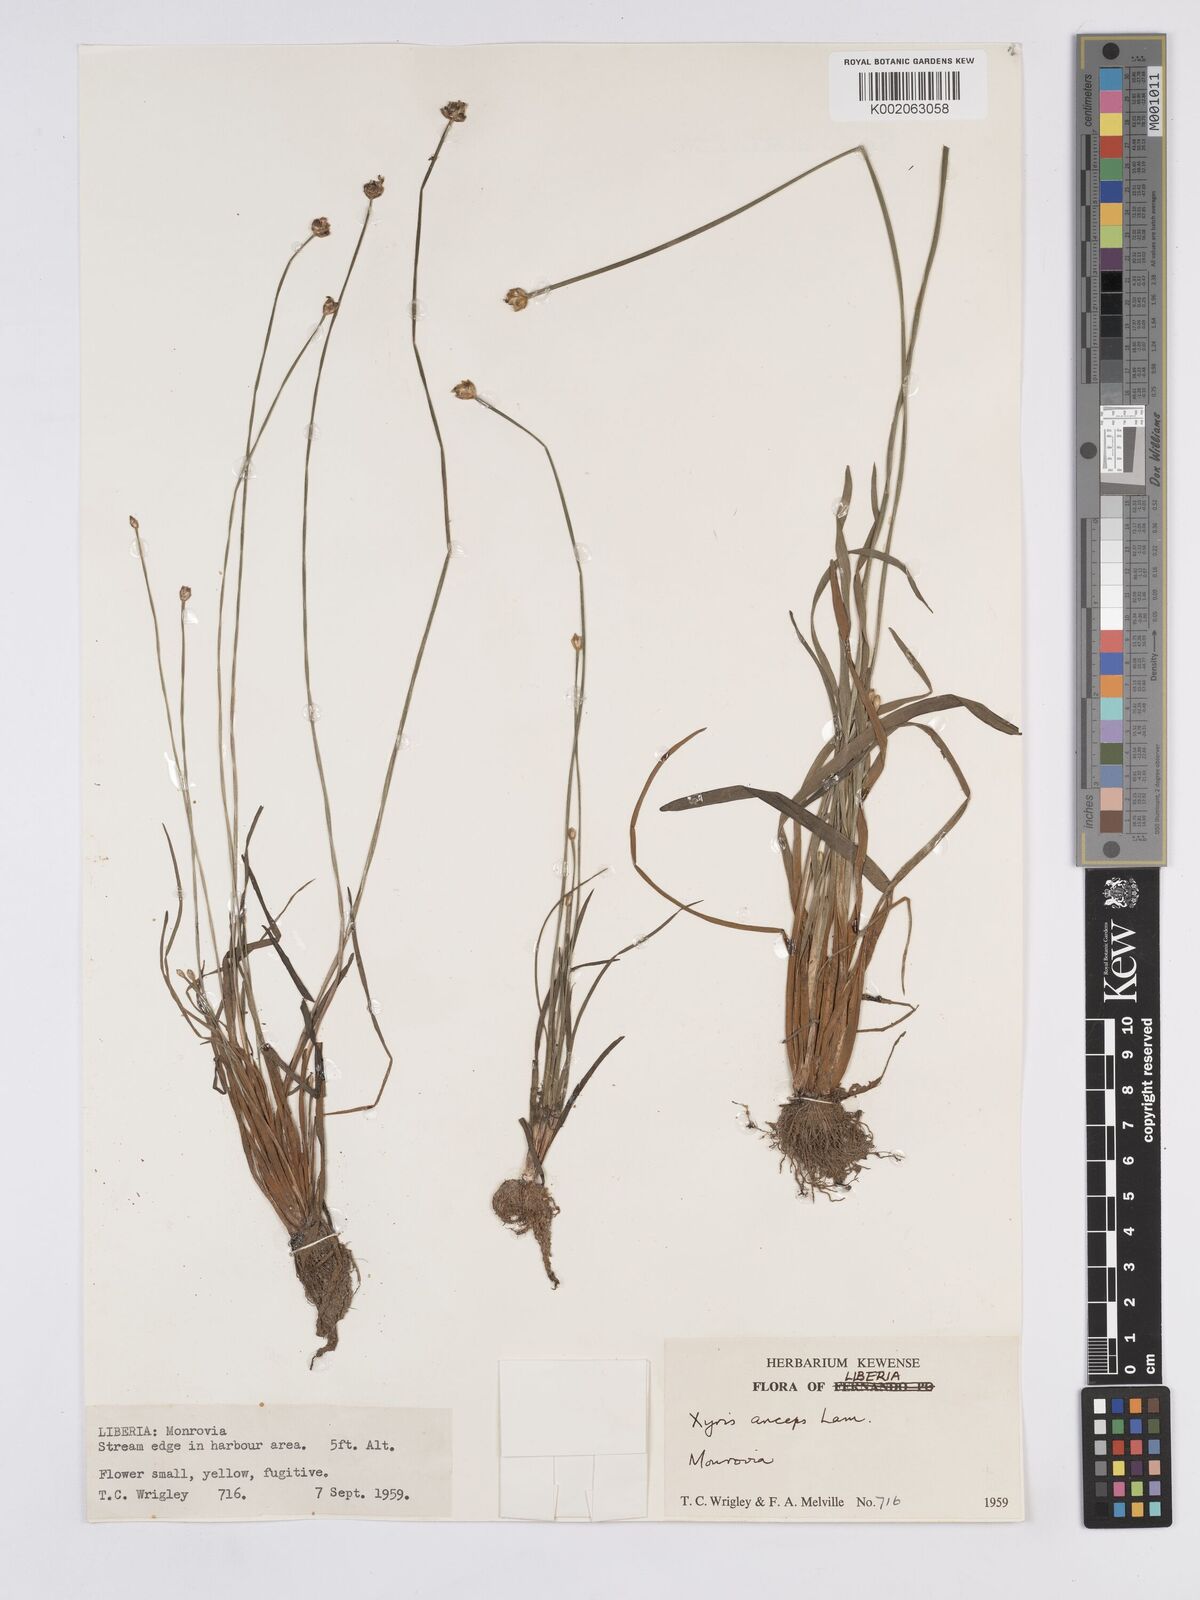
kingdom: Plantae
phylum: Tracheophyta
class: Liliopsida
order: Poales
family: Xyridaceae
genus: Xyris
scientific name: Xyris anceps
